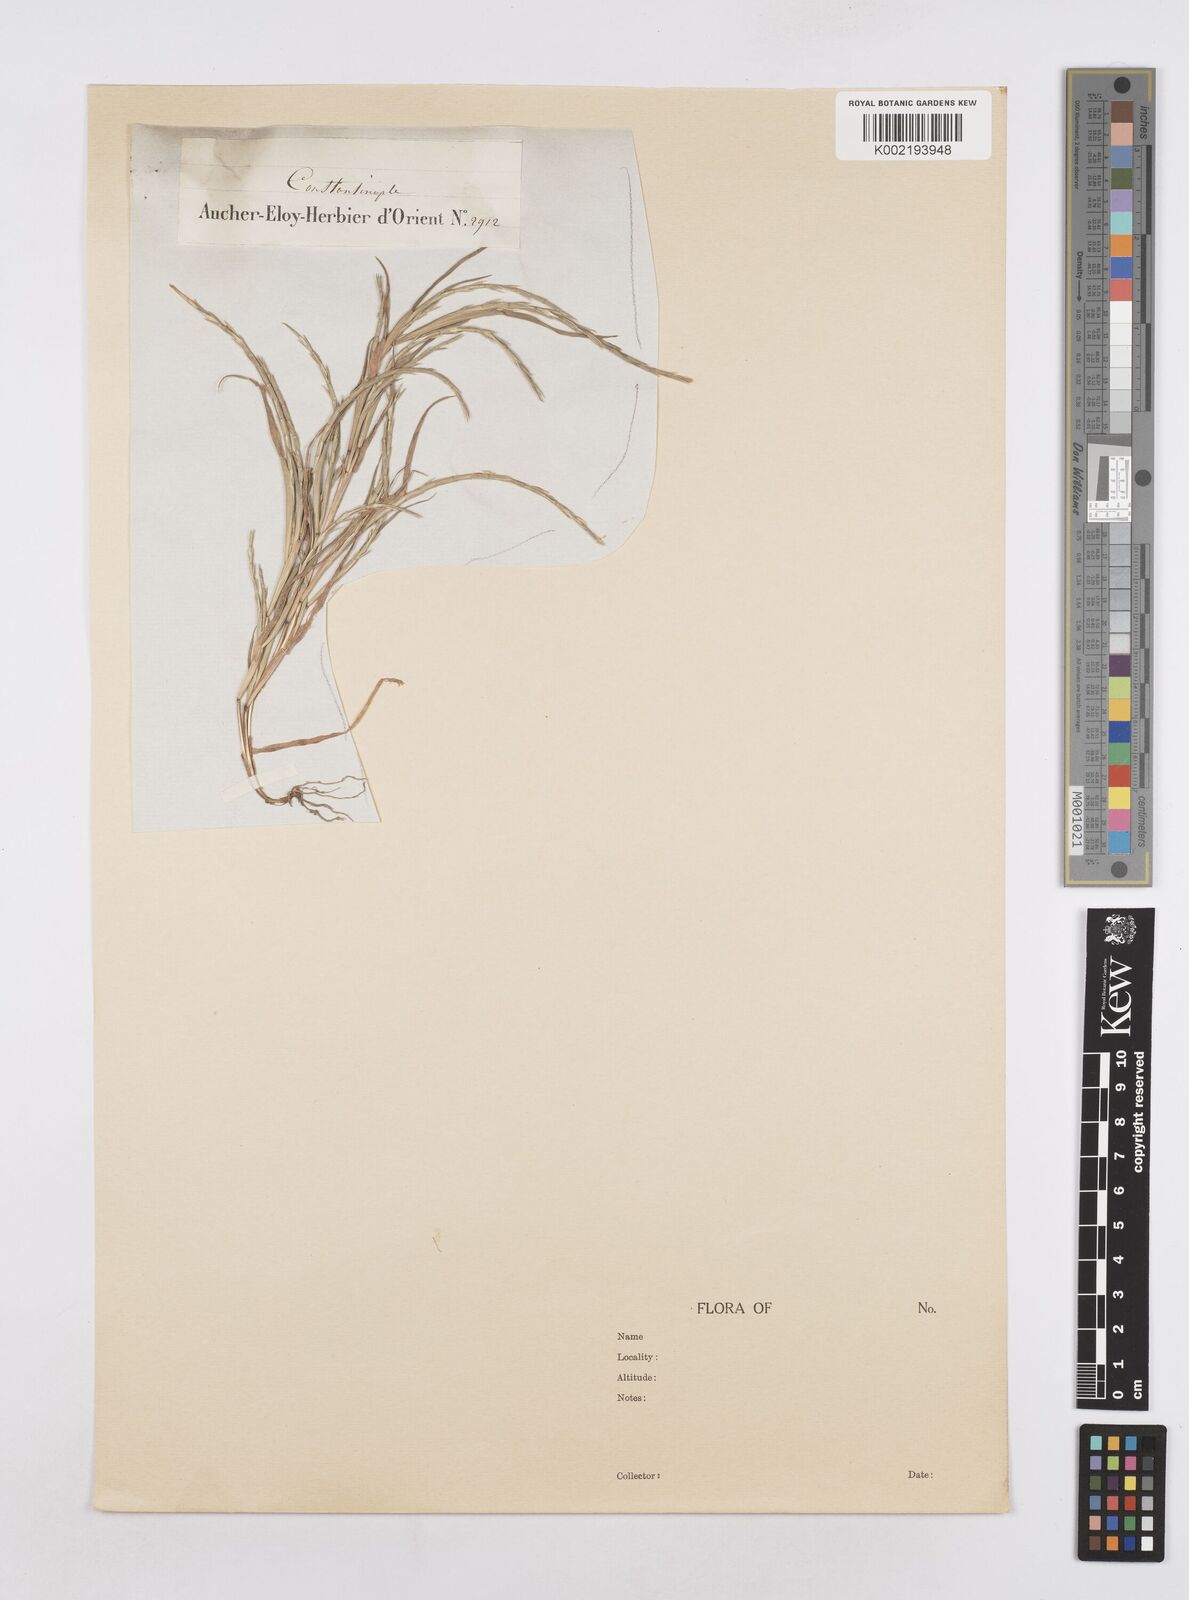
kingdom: Plantae
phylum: Tracheophyta
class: Liliopsida
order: Poales
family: Poaceae
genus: Parapholis
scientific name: Parapholis incurva
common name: Curved sicklegrass
